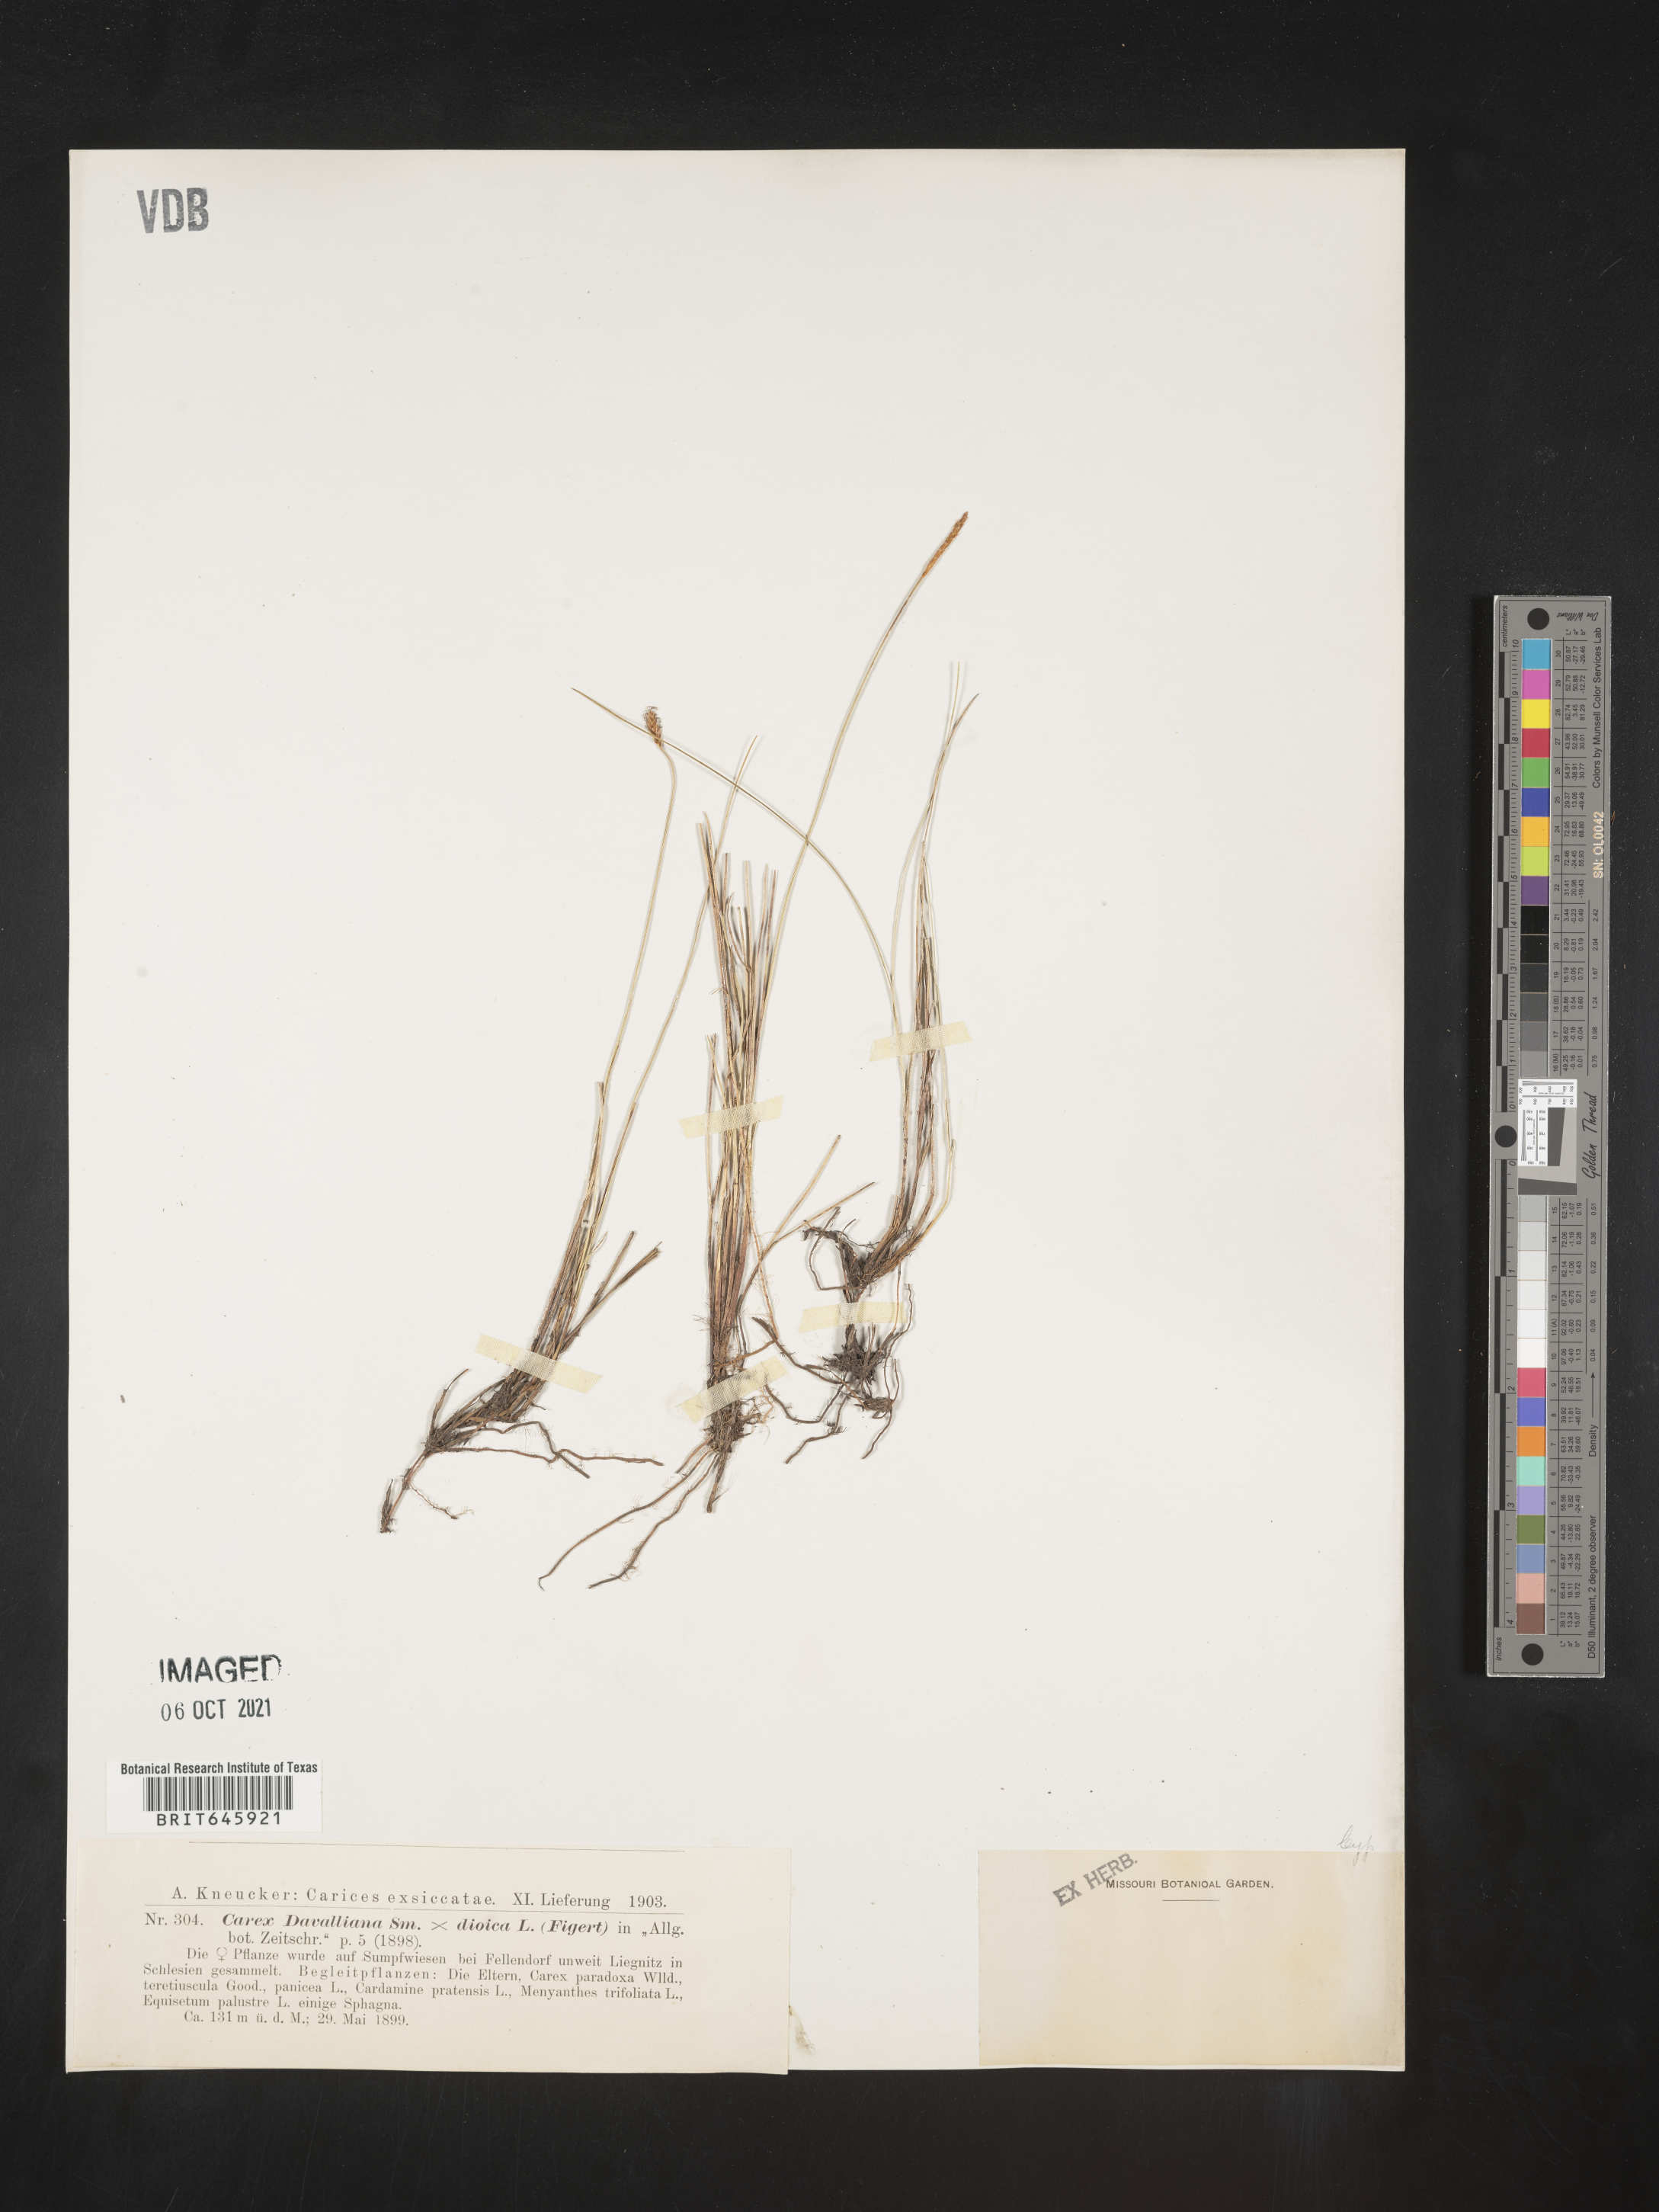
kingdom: Plantae
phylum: Tracheophyta
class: Liliopsida
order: Poales
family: Cyperaceae
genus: Carex
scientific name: Carex
